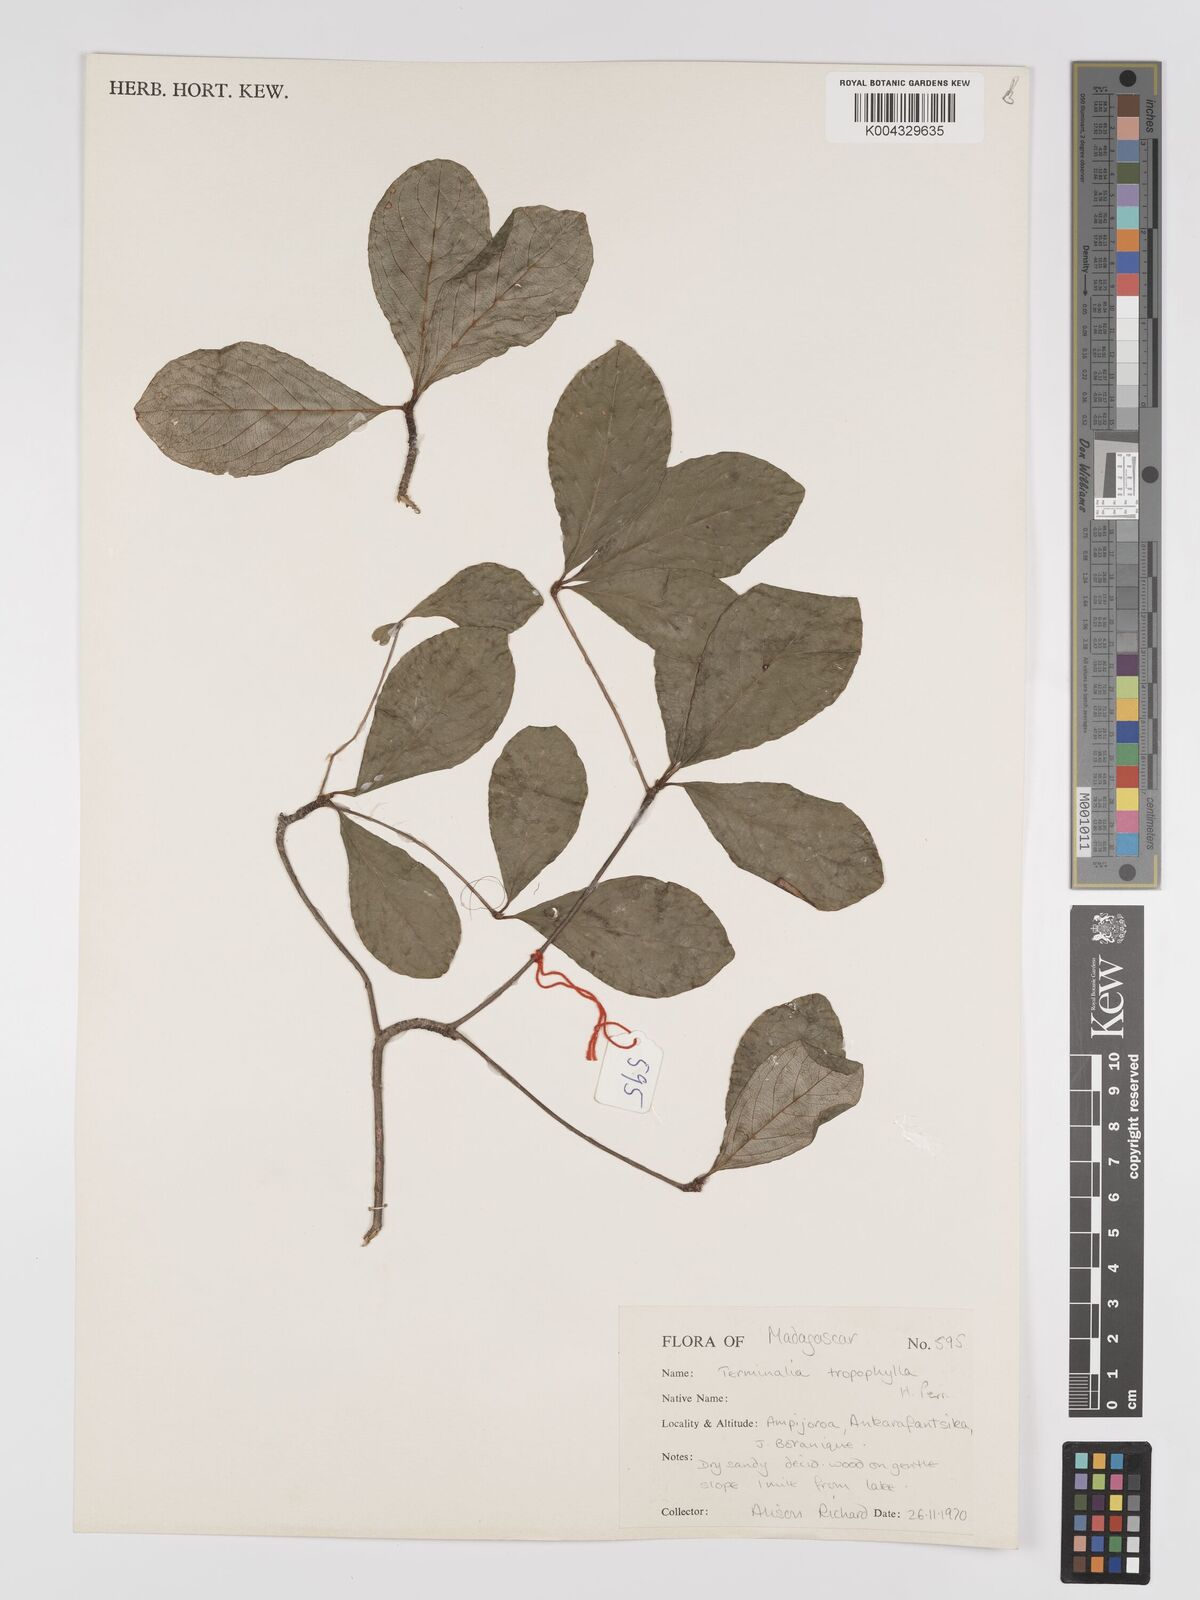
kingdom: Plantae
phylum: Tracheophyta
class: Magnoliopsida
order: Myrtales
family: Combretaceae
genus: Terminalia
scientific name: Terminalia tropophylla
